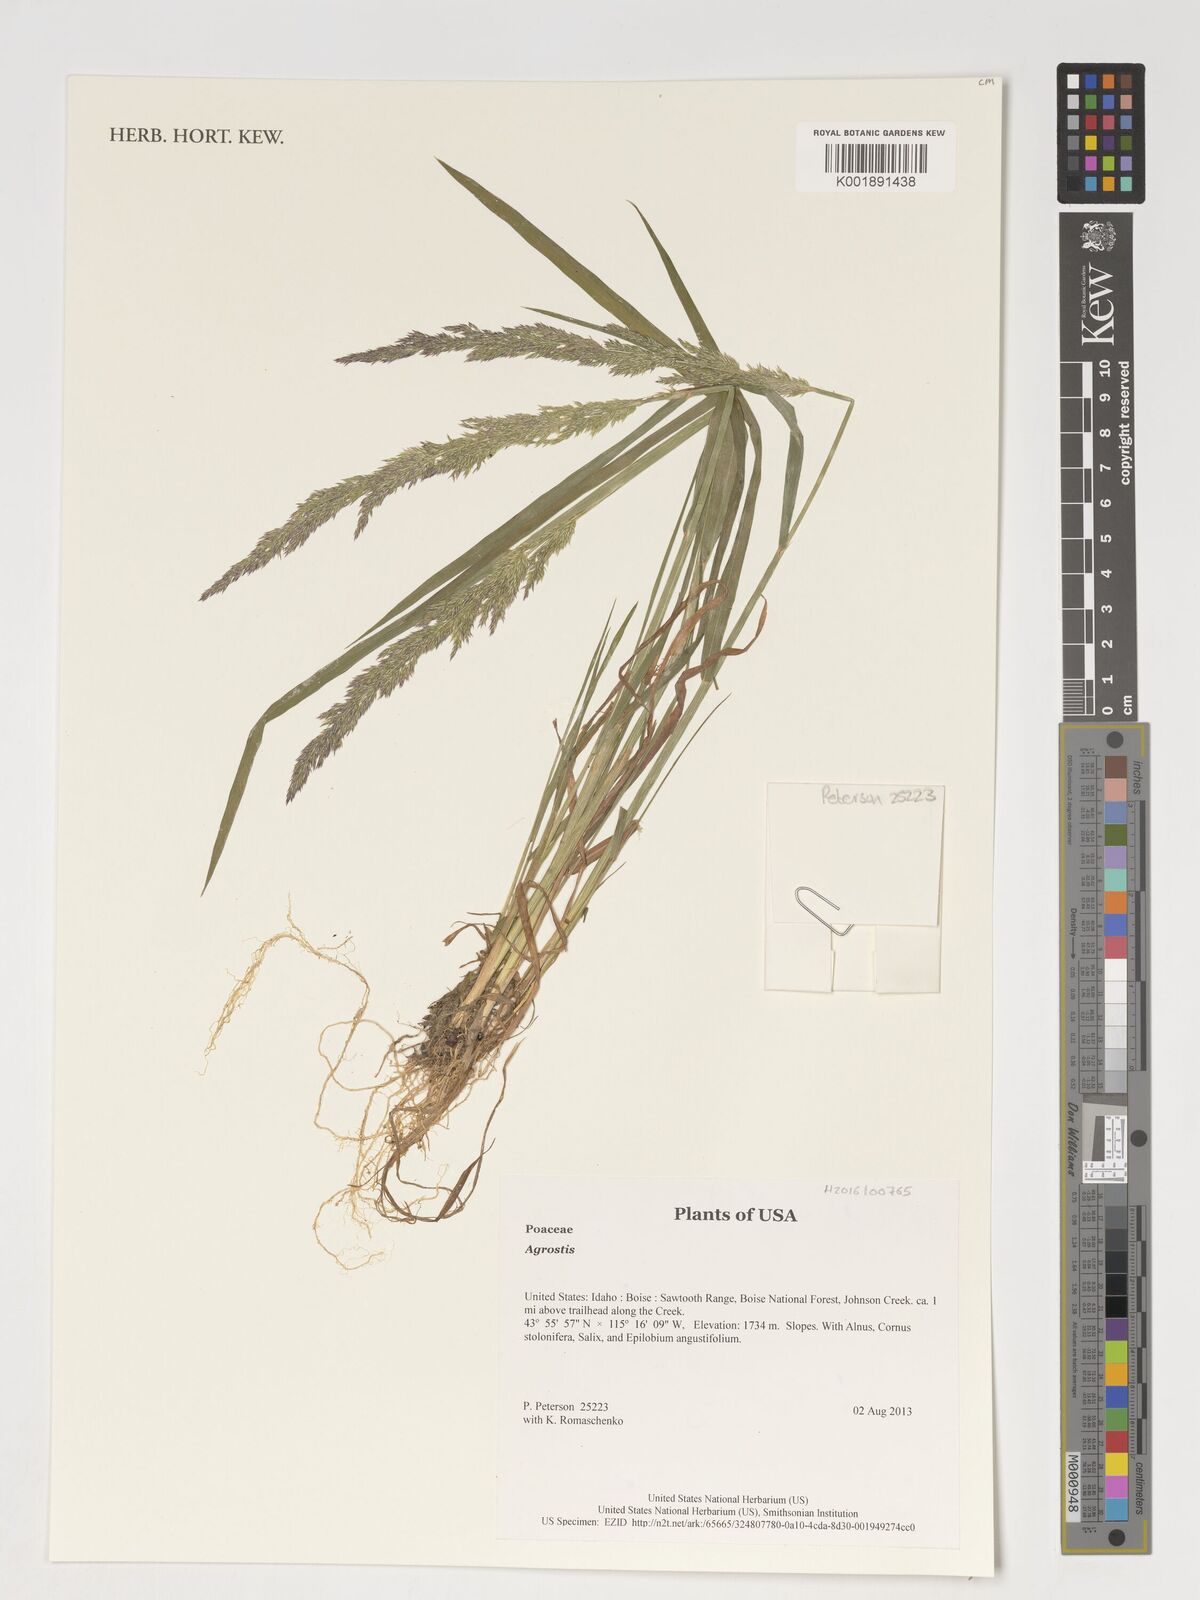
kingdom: Plantae
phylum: Tracheophyta
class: Liliopsida
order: Poales
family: Poaceae
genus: Agrostis
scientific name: Agrostis
